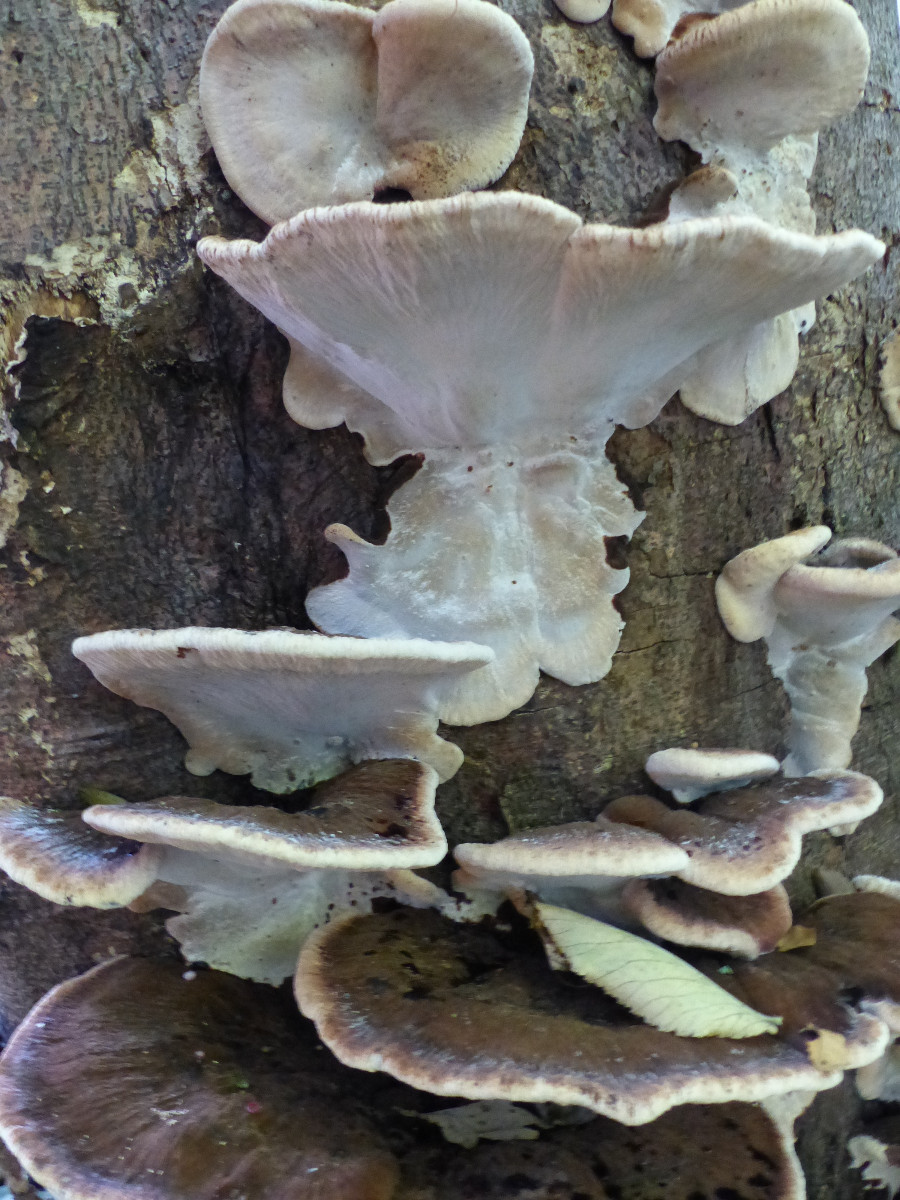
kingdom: Fungi
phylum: Basidiomycota
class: Agaricomycetes
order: Polyporales
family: Ischnodermataceae
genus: Ischnoderma
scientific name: Ischnoderma resinosum
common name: løv-tjæreporesvamp
